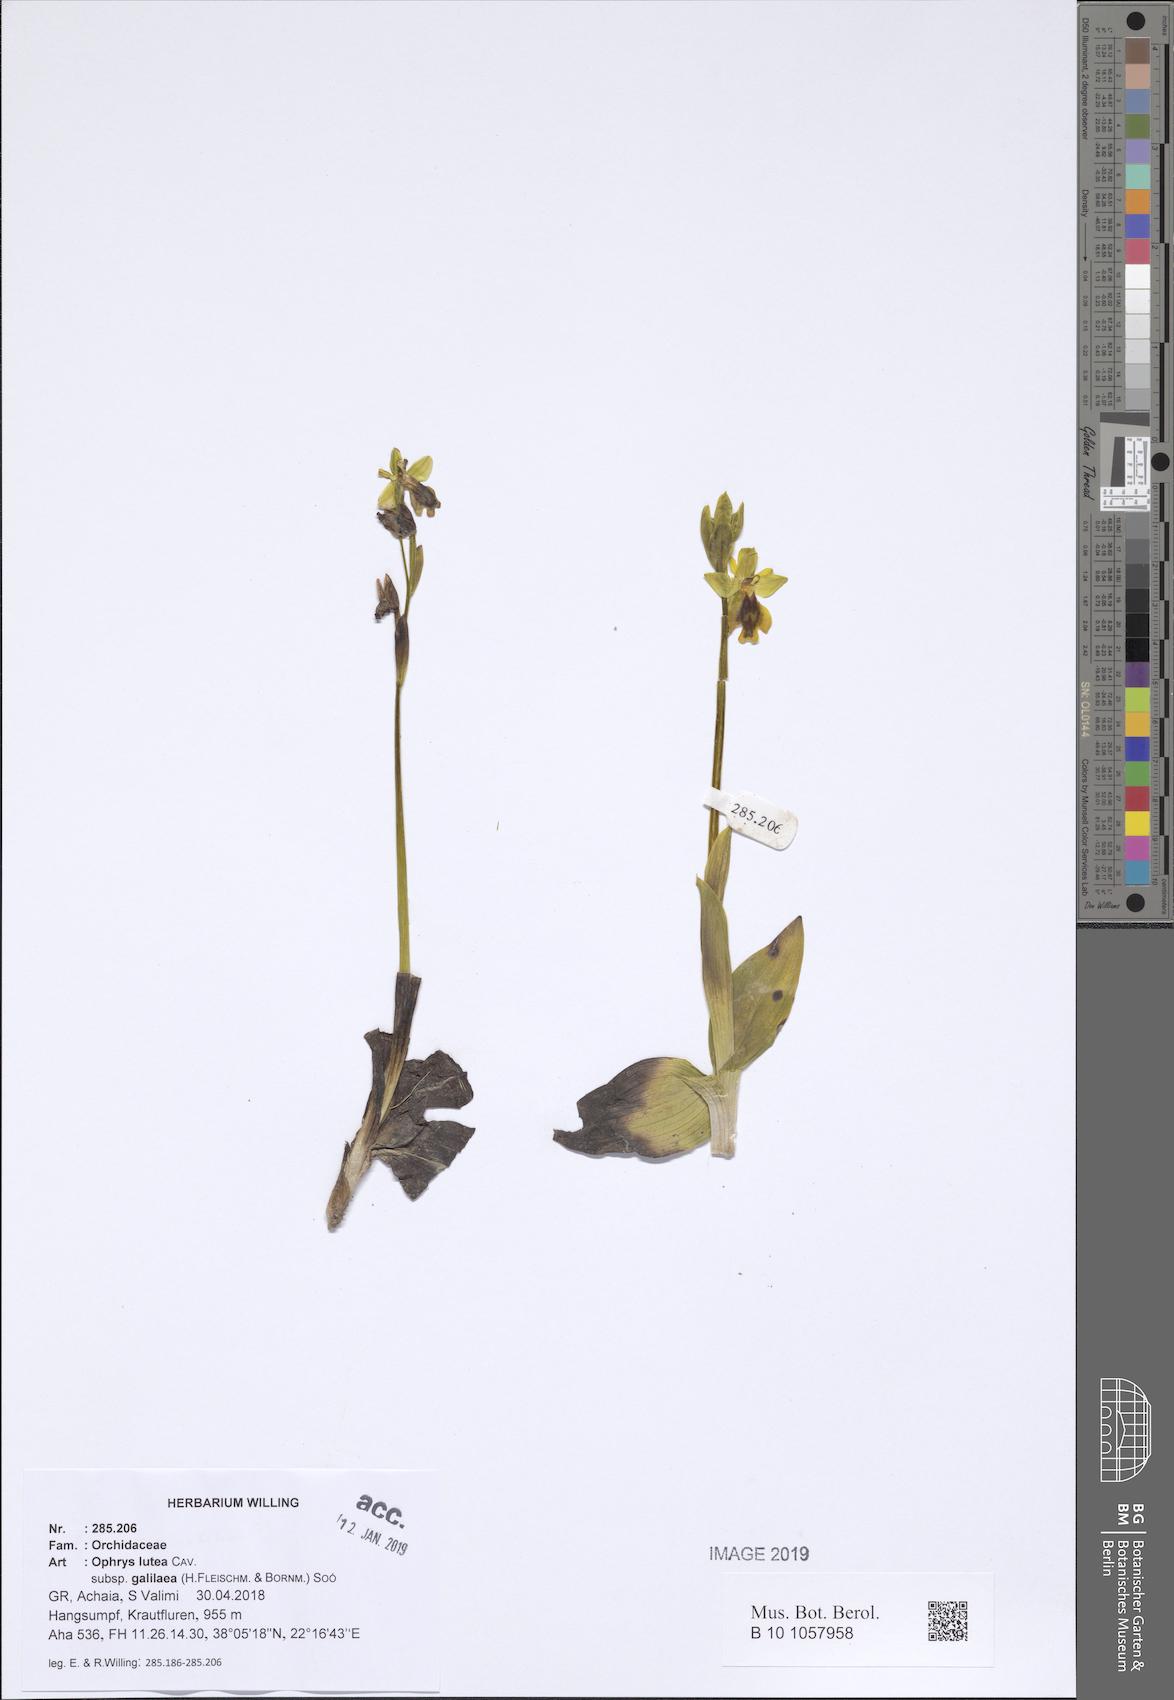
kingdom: Plantae
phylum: Tracheophyta
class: Liliopsida
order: Asparagales
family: Orchidaceae
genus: Ophrys
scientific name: Ophrys lutea
